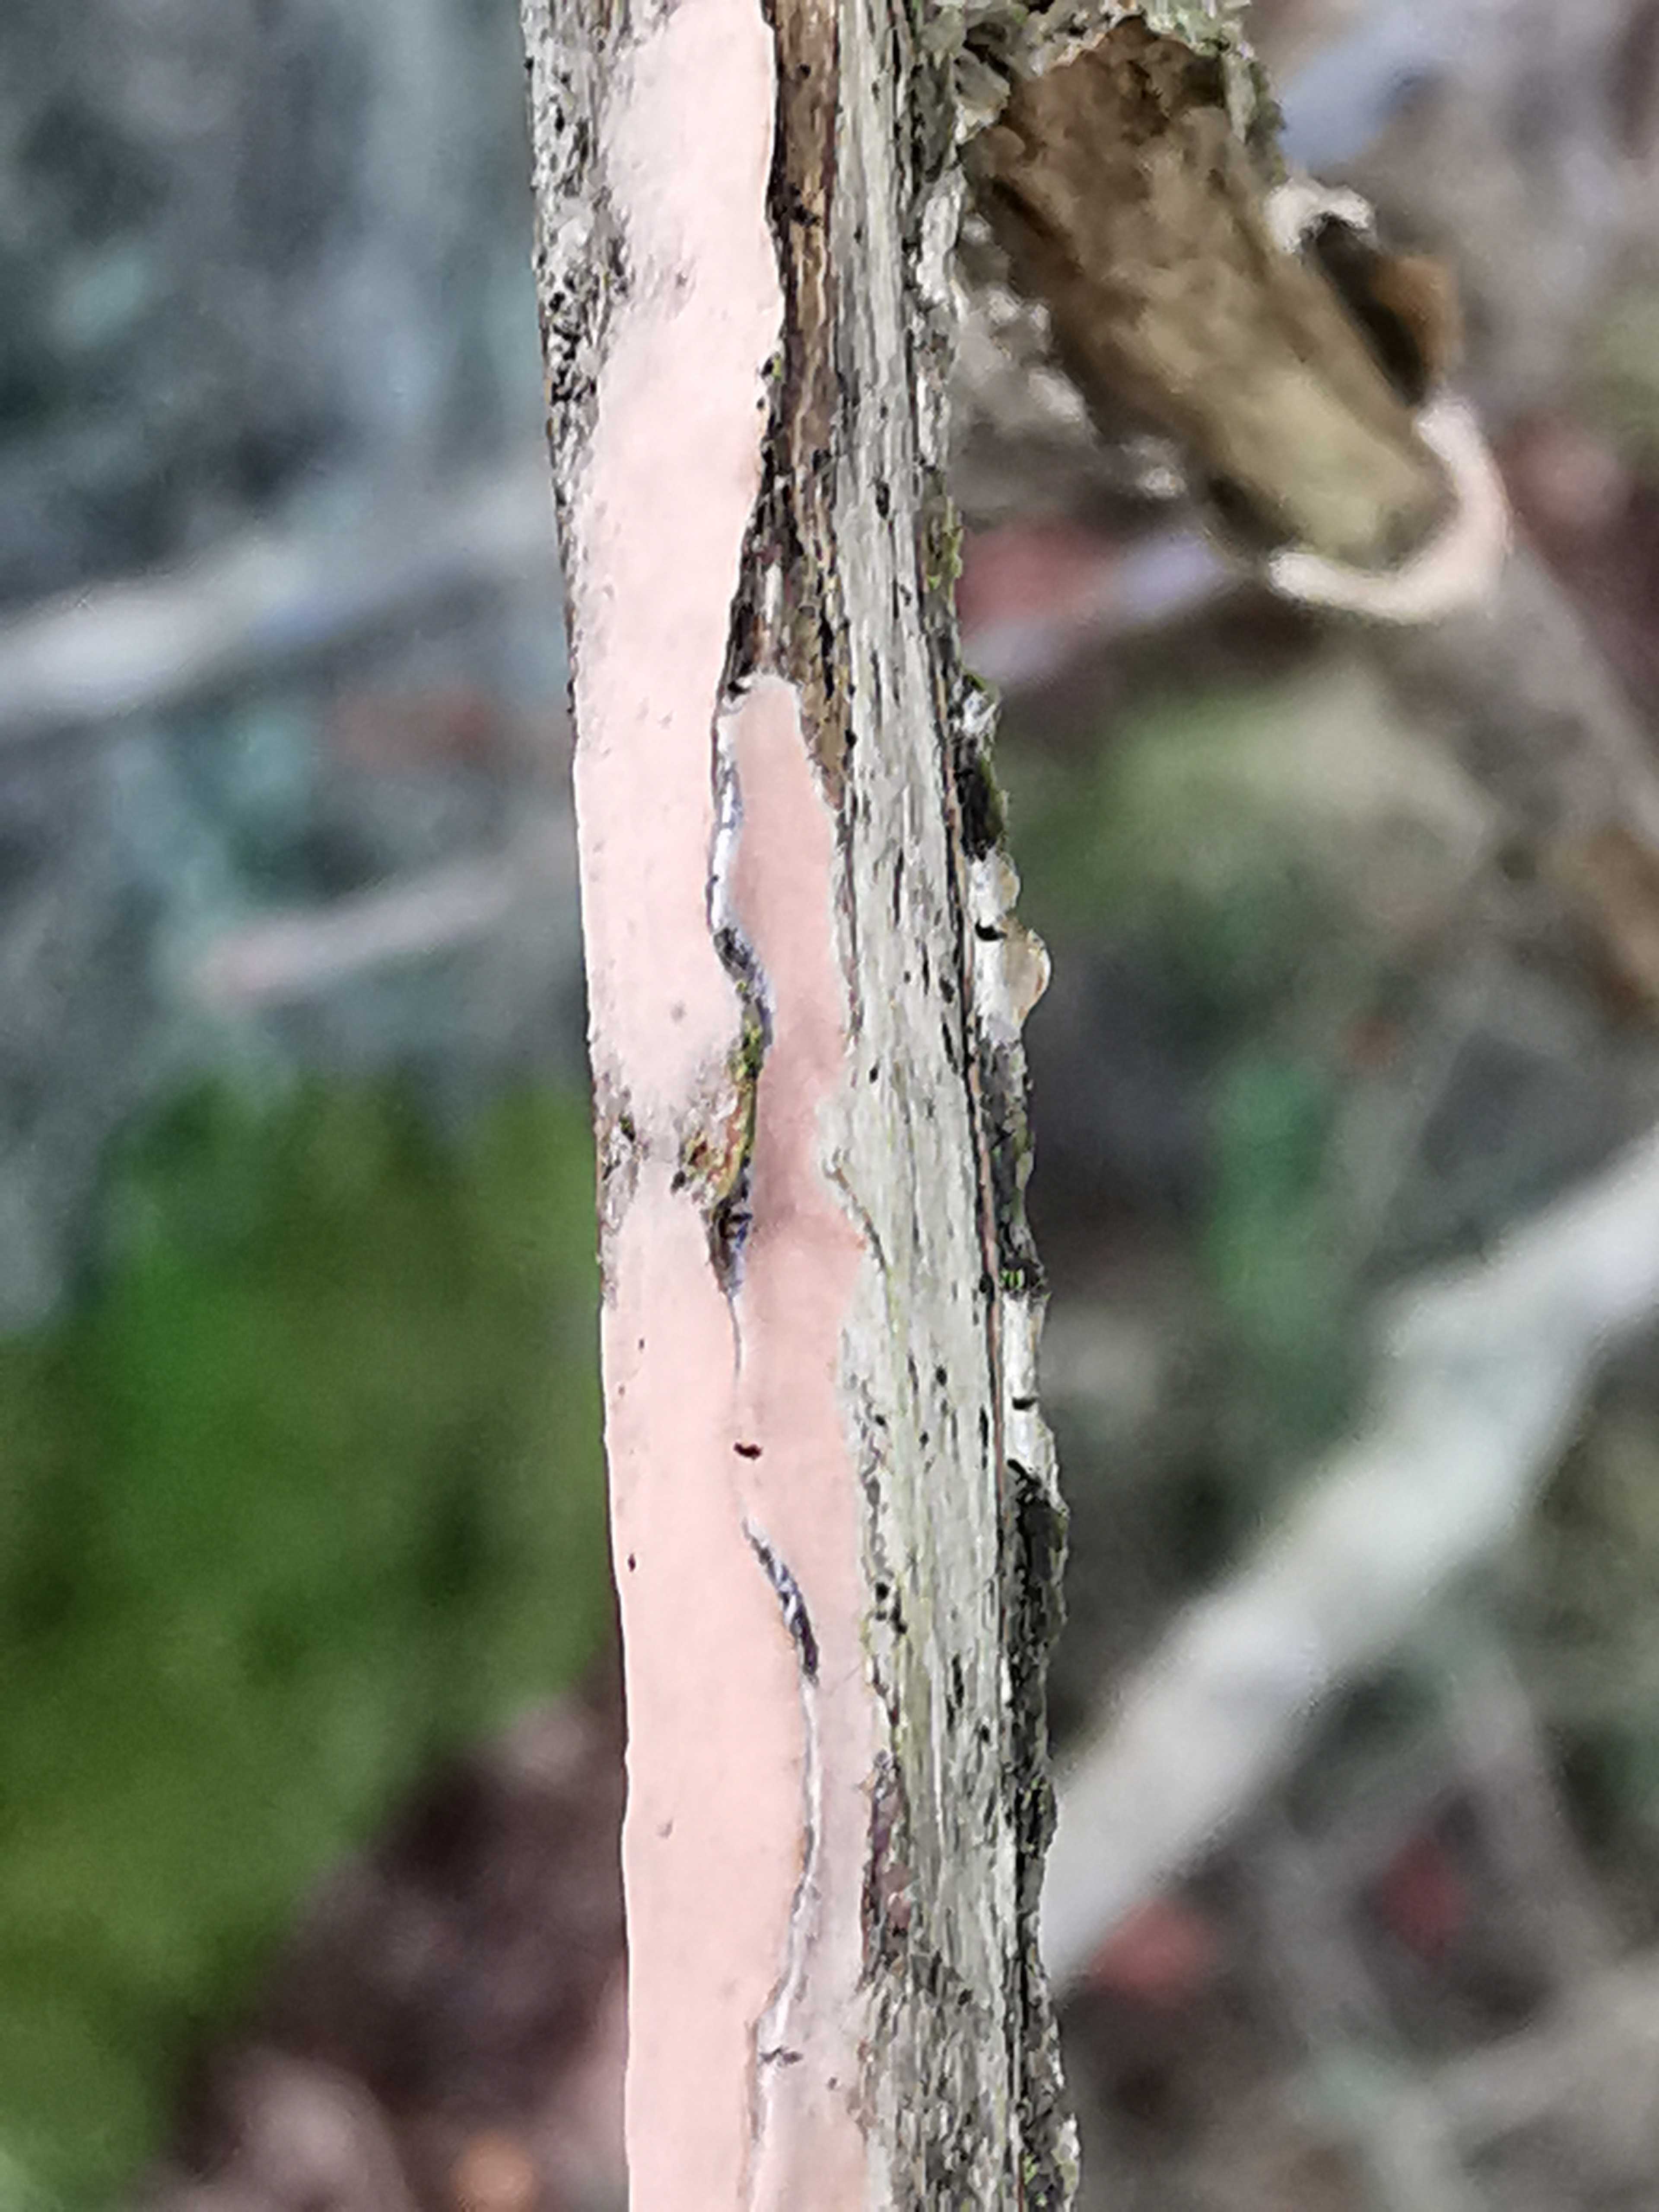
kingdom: Fungi
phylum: Basidiomycota
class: Agaricomycetes
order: Russulales
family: Peniophoraceae
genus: Peniophora
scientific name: Peniophora incarnata
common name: laksefarvet voksskind
